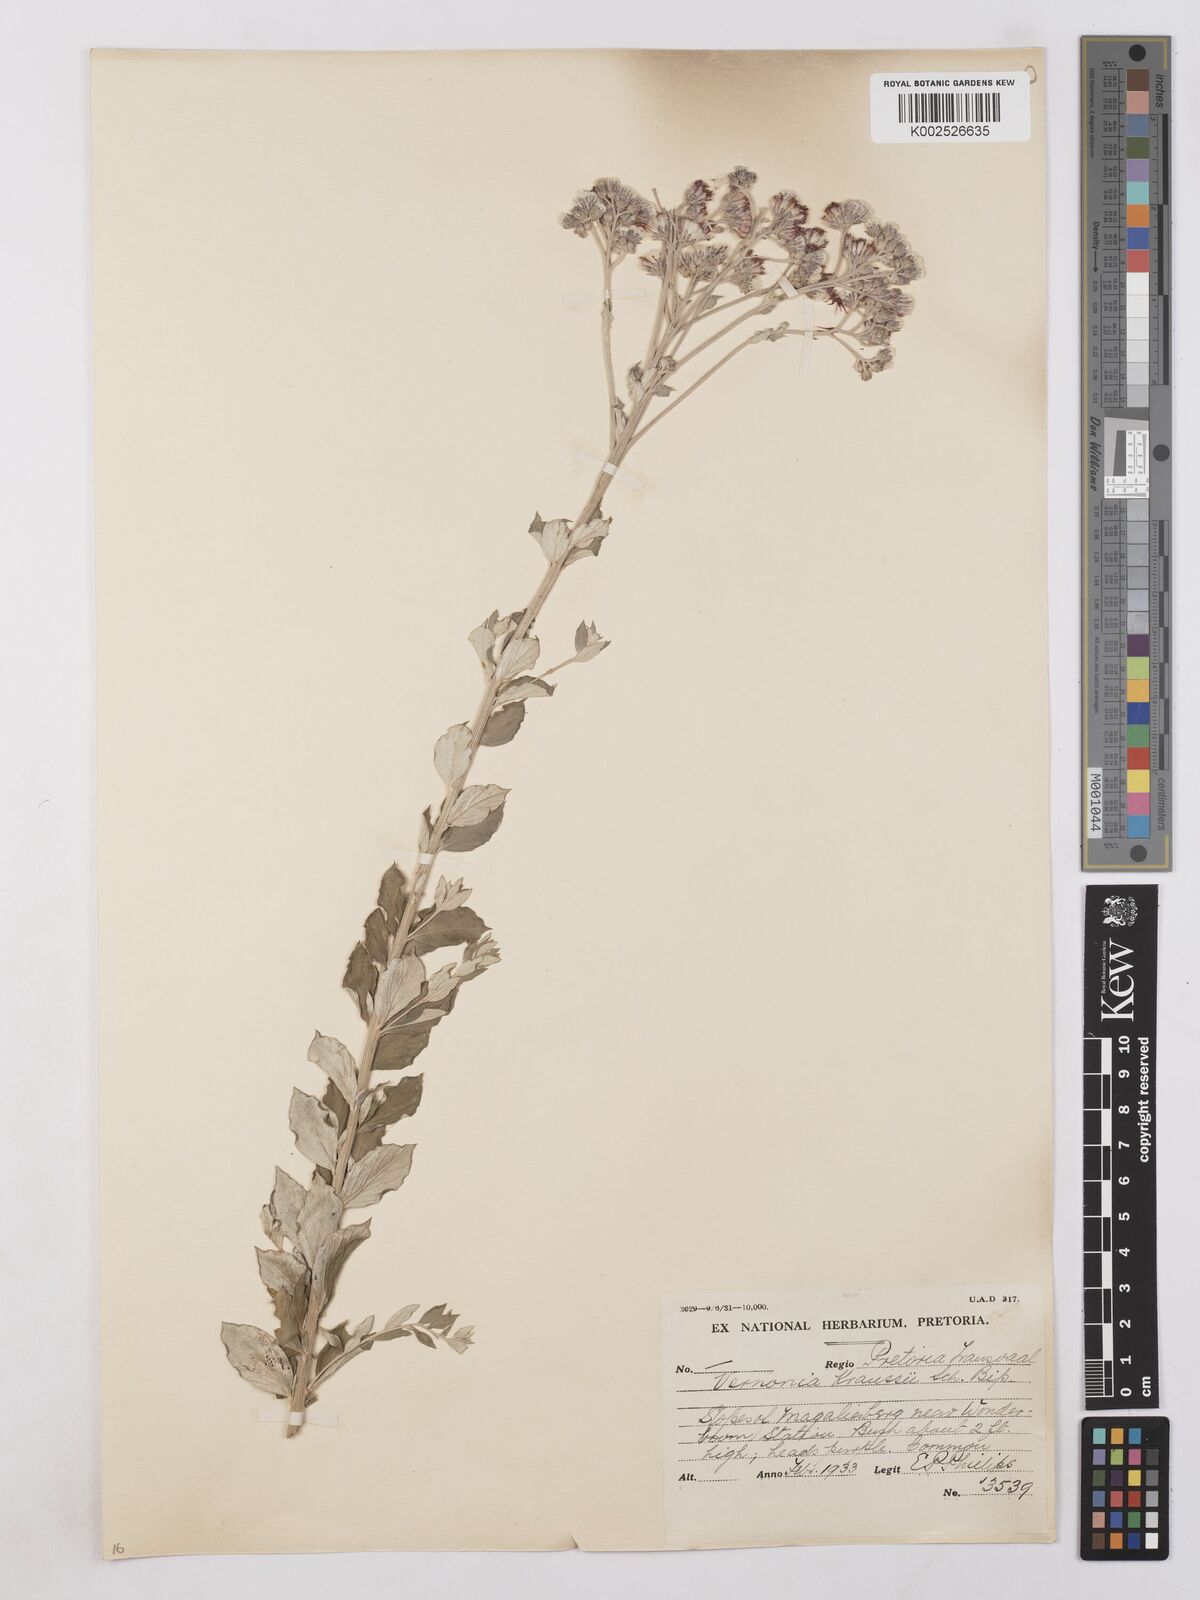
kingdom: Plantae
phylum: Tracheophyta
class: Magnoliopsida
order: Asterales
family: Asteraceae
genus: Hilliardiella
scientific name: Hilliardiella oligocephala
